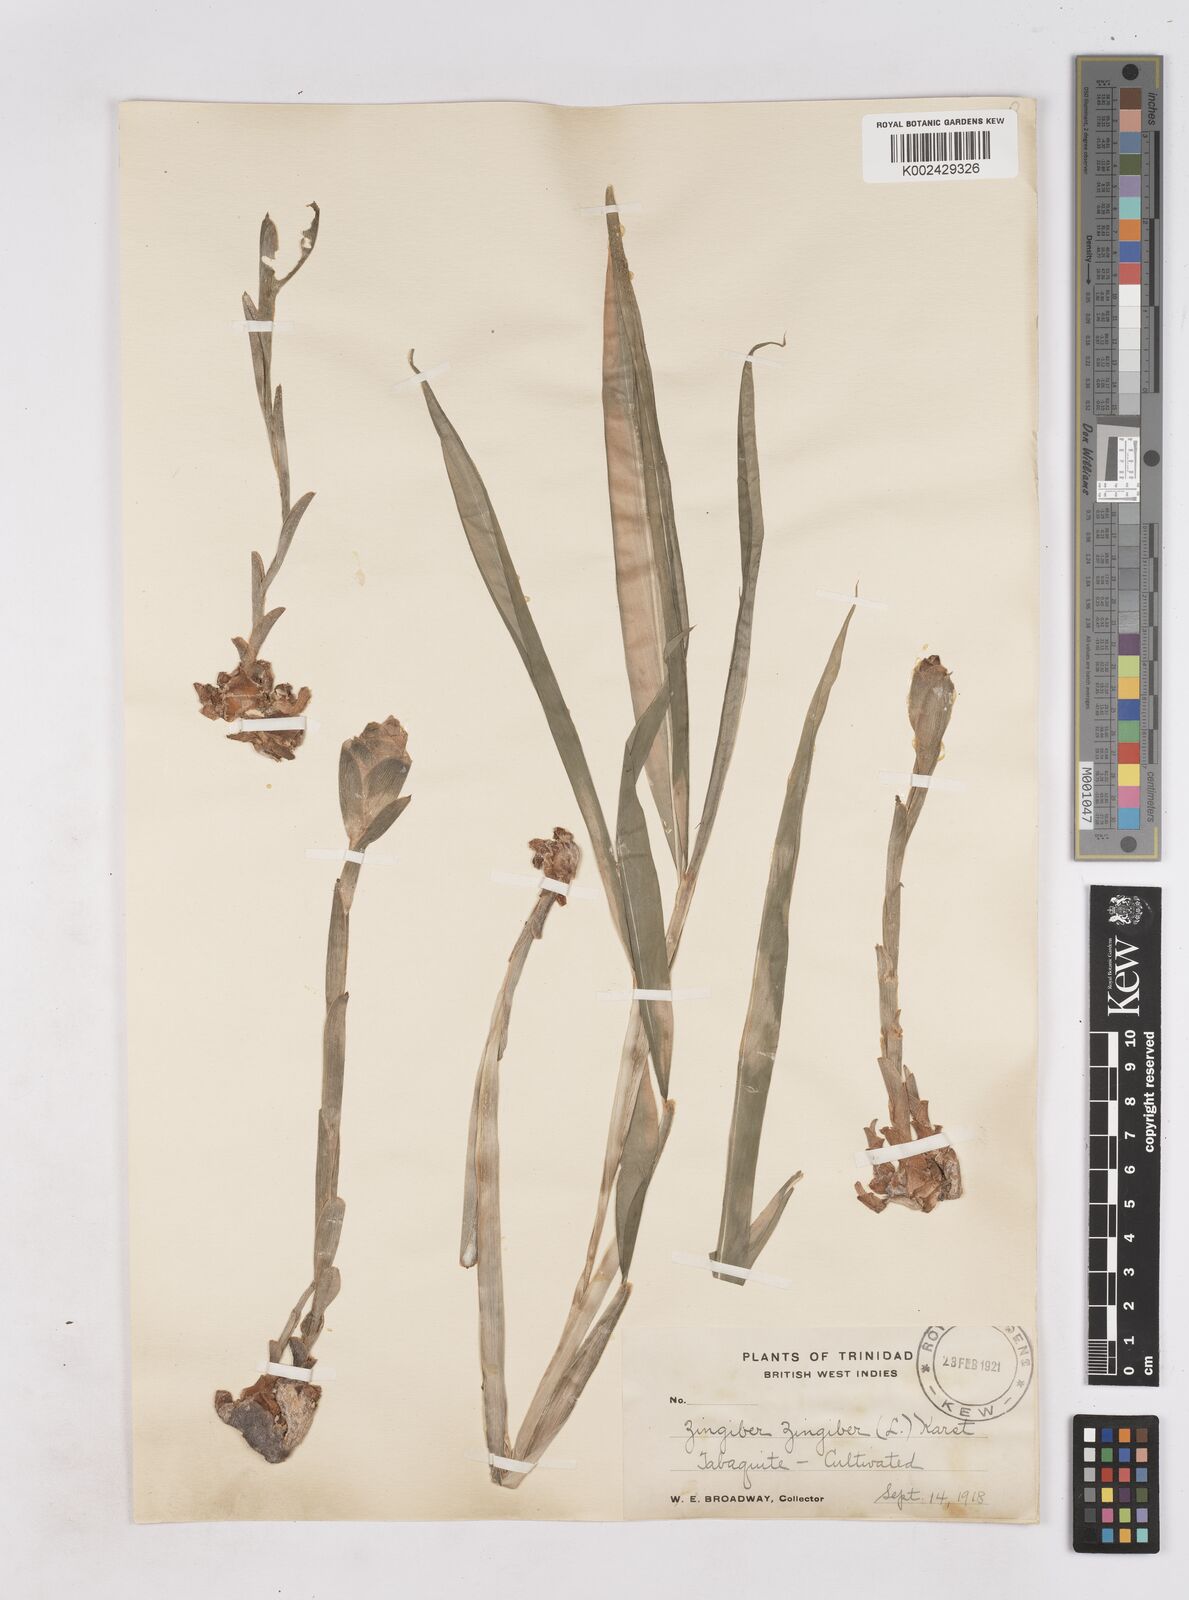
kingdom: Plantae
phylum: Tracheophyta
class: Liliopsida
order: Zingiberales
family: Zingiberaceae
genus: Zingiber
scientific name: Zingiber officinale
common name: Ginger
